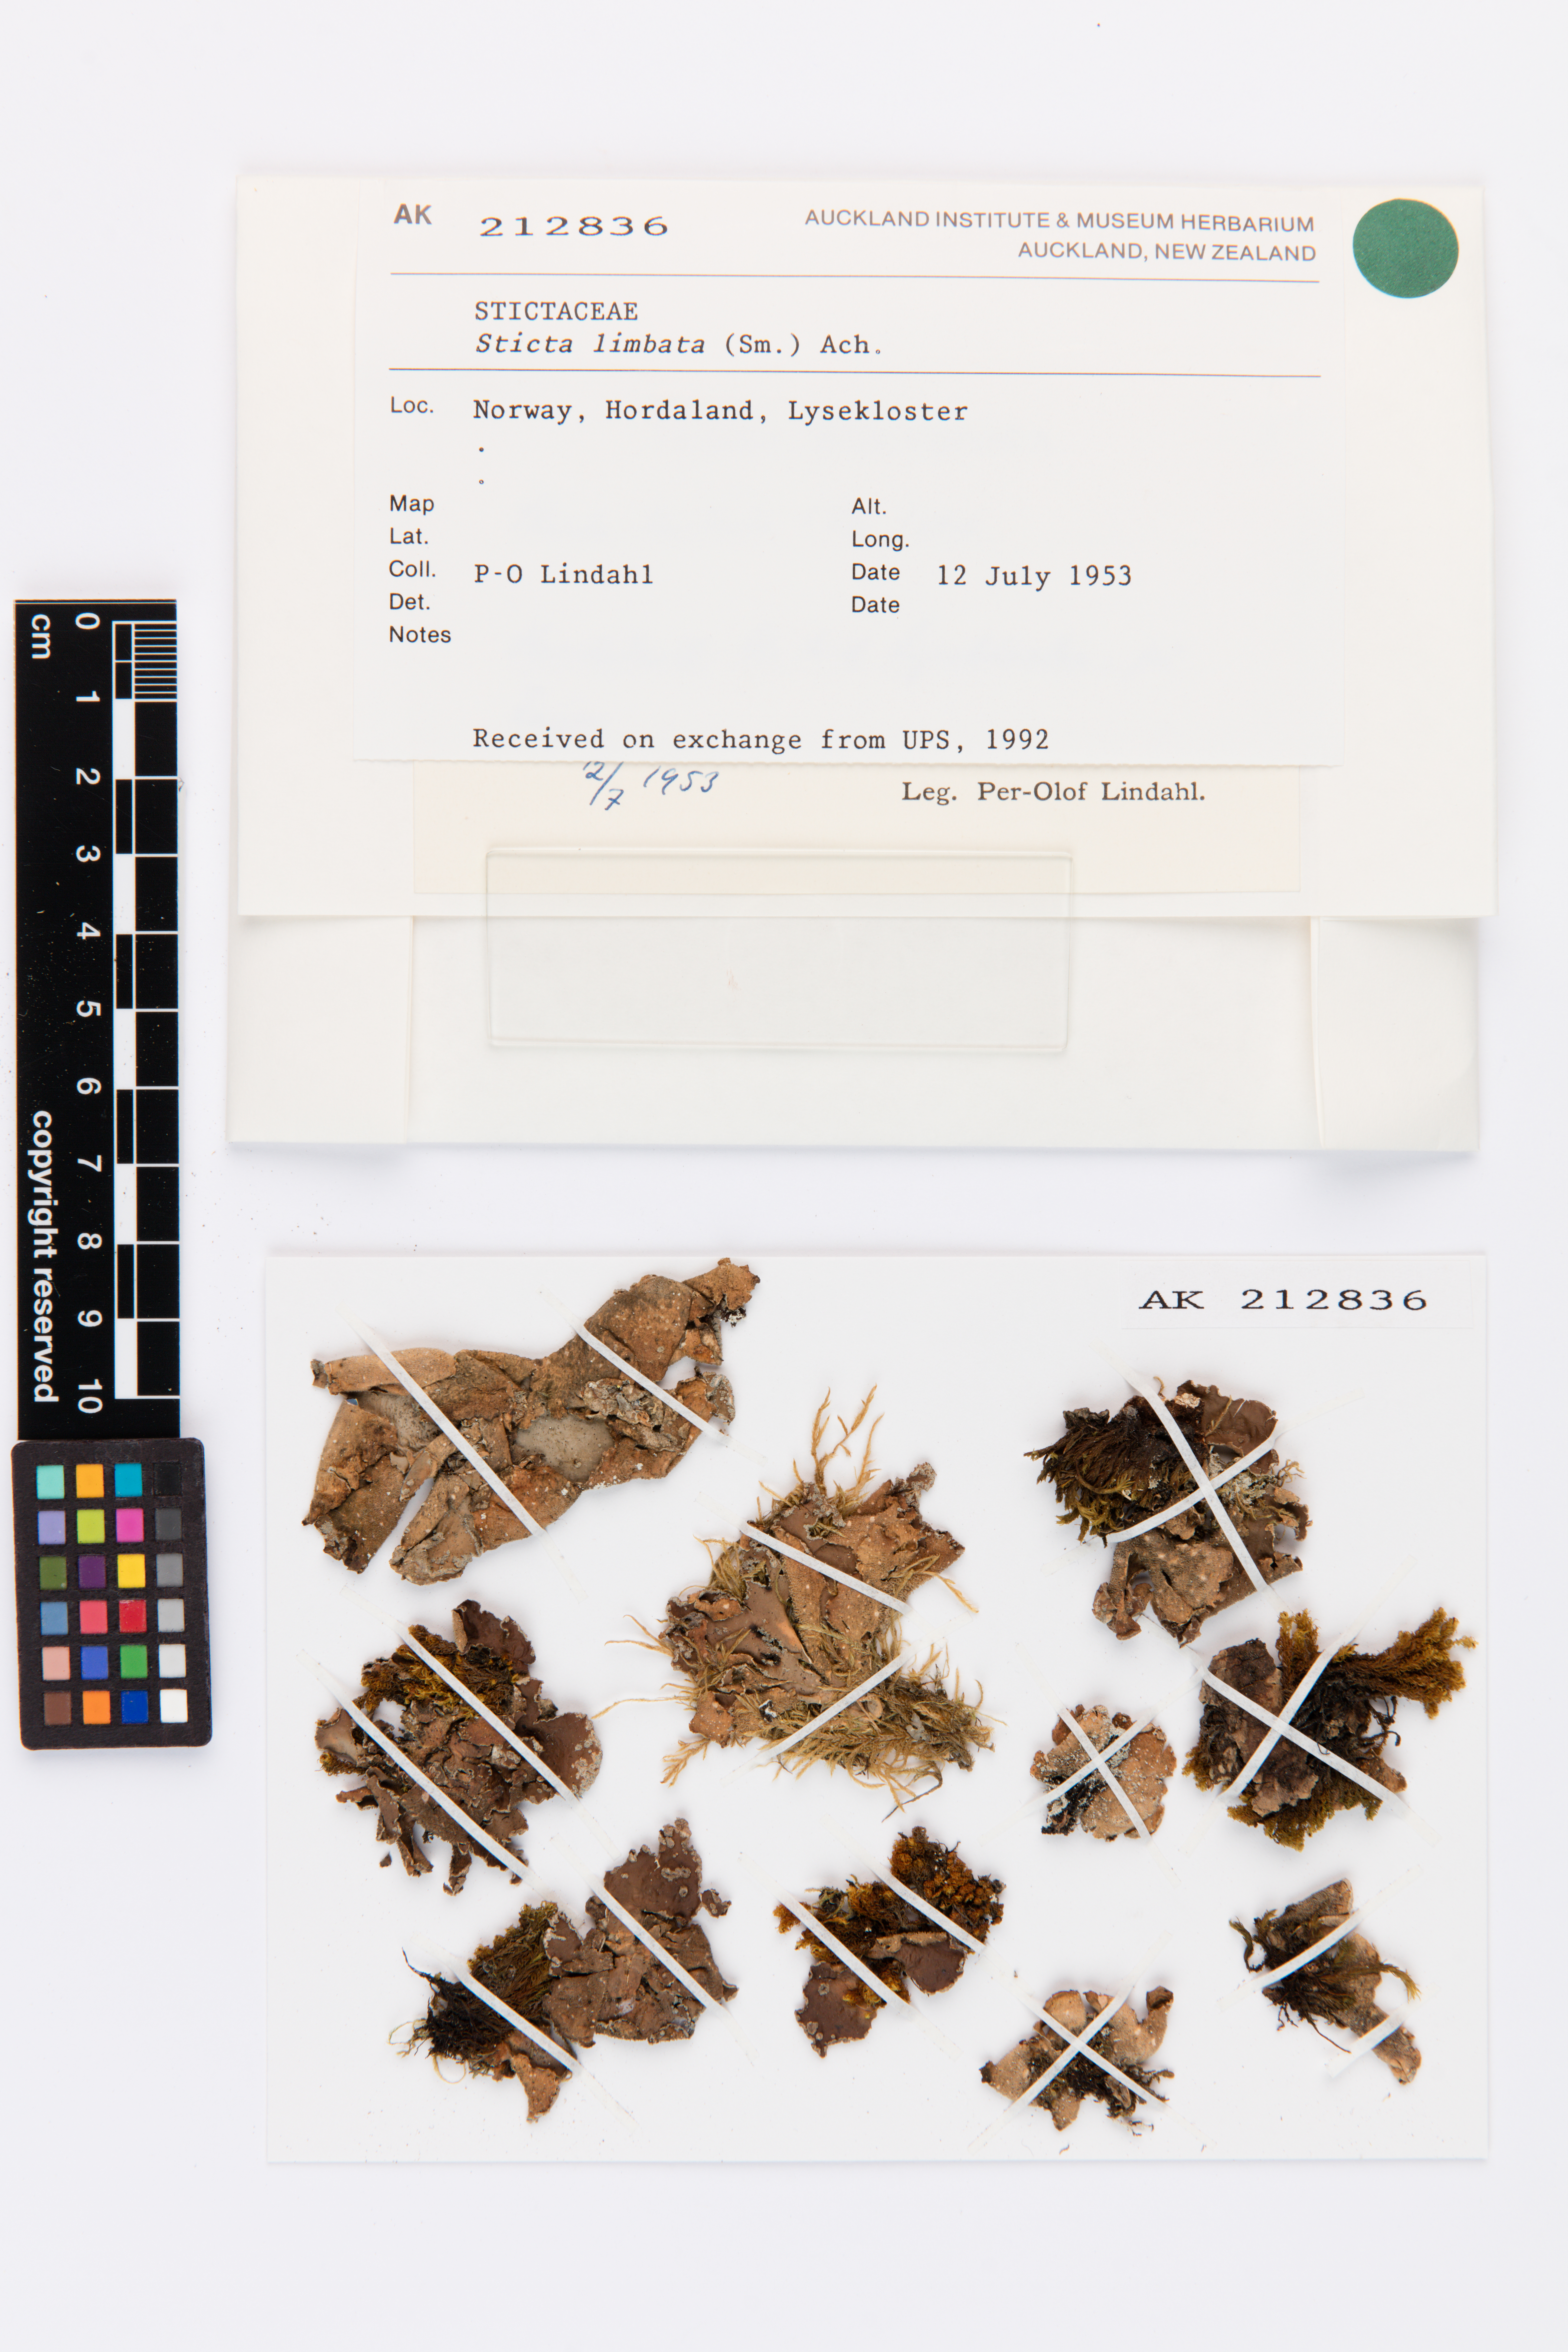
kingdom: Fungi
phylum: Ascomycota
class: Lecanoromycetes
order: Peltigerales
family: Lobariaceae
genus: Sticta
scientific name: Sticta limbata
